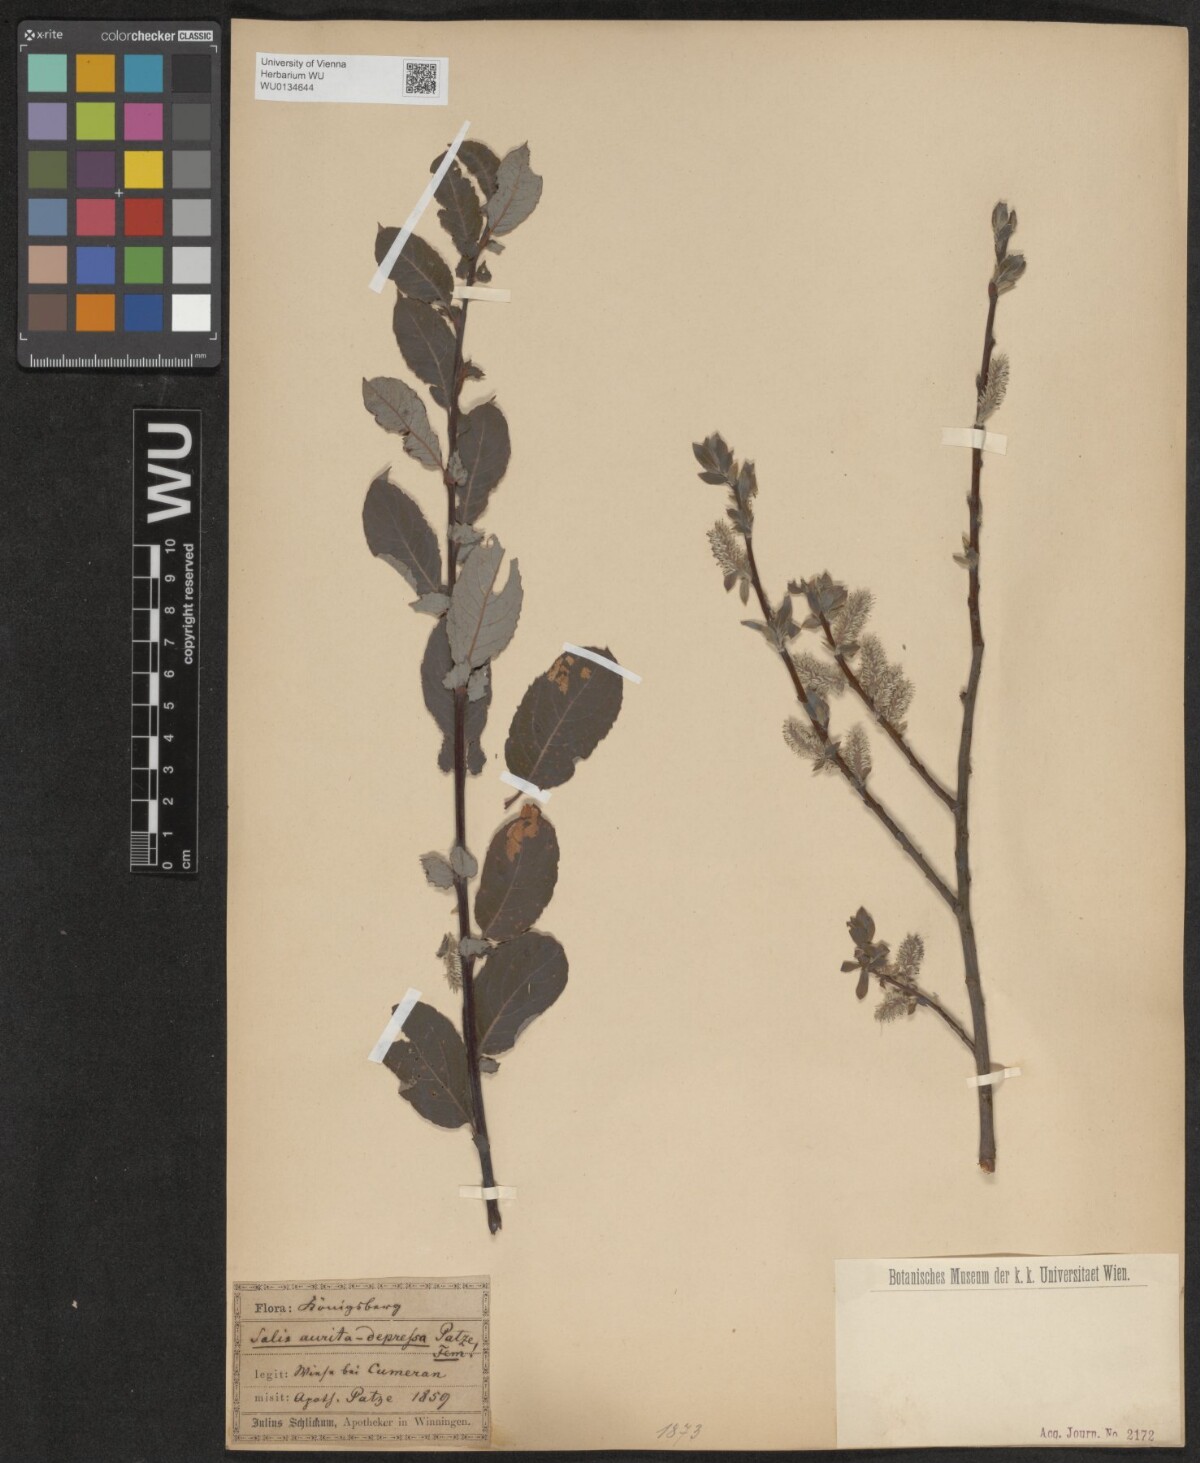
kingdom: Plantae
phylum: Tracheophyta
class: Magnoliopsida
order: Malpighiales
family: Salicaceae
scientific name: Salicaceae
